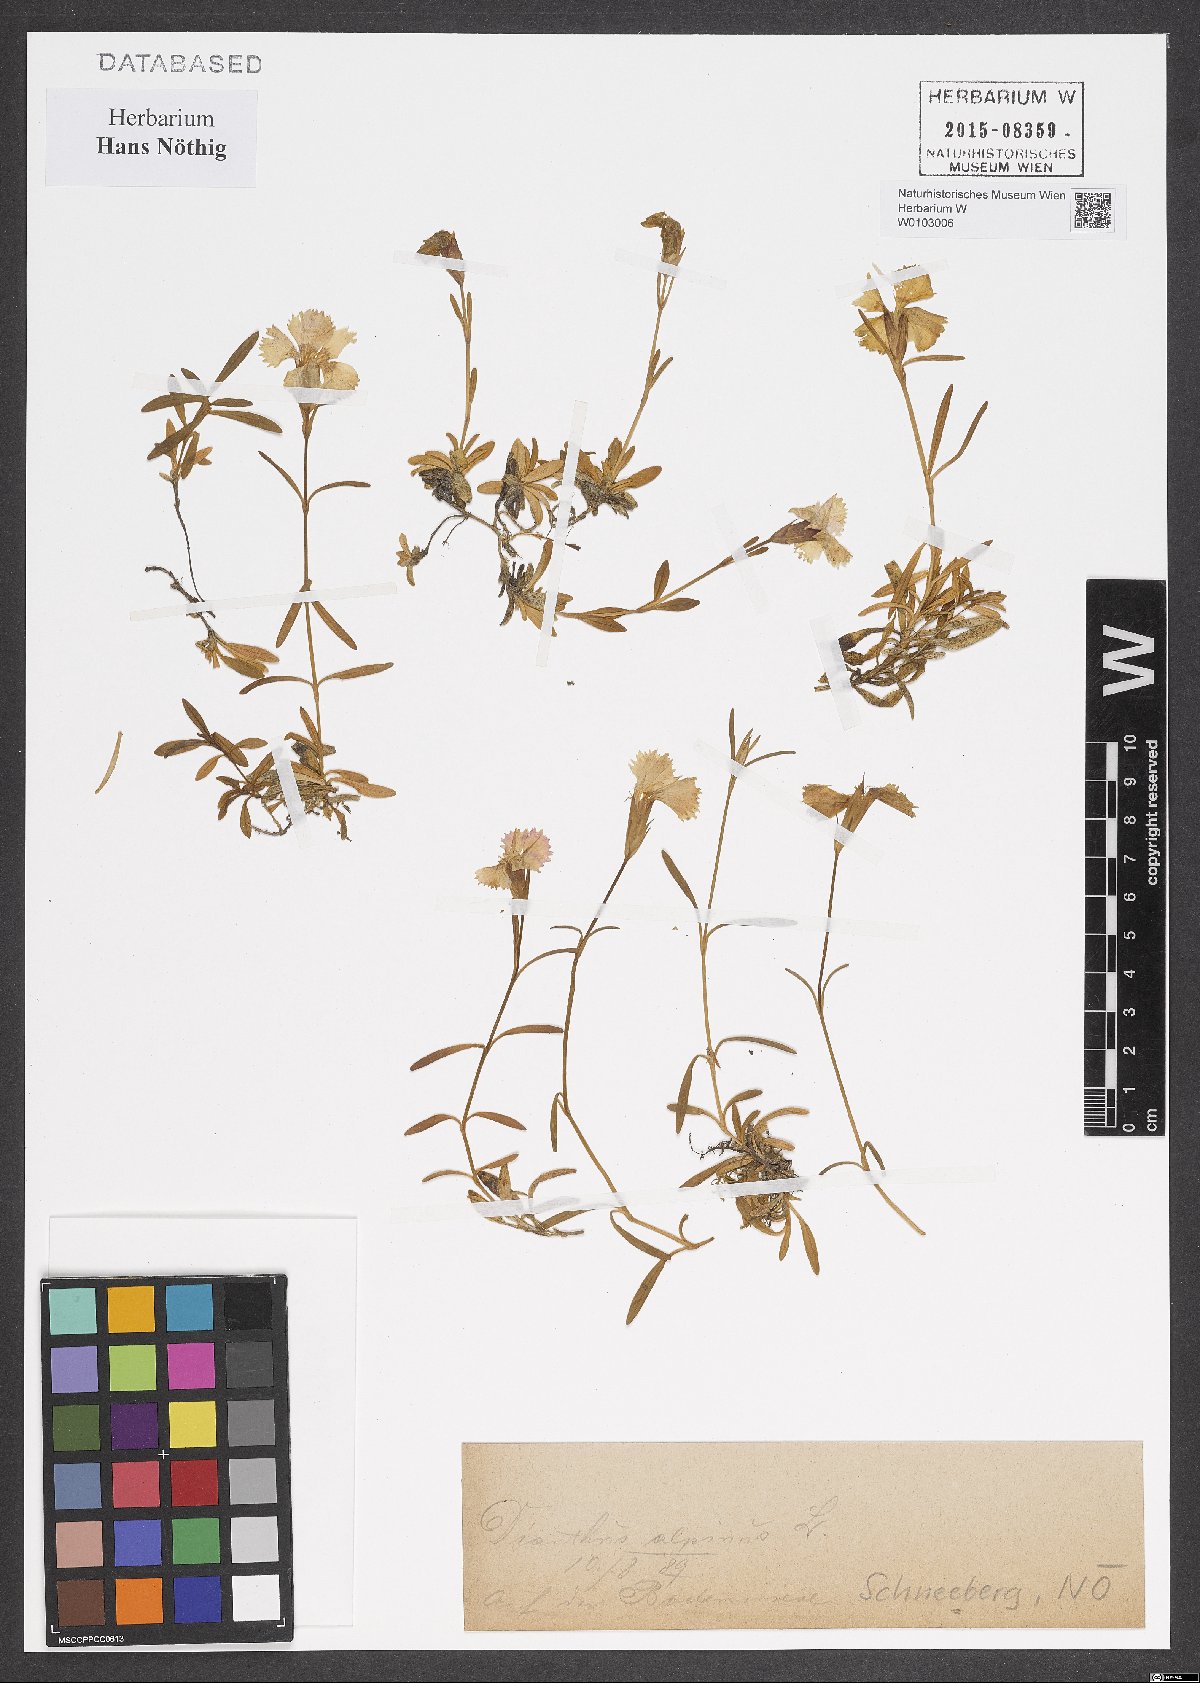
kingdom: Plantae
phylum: Tracheophyta
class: Magnoliopsida
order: Caryophyllales
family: Caryophyllaceae
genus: Dianthus
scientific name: Dianthus alpinus
